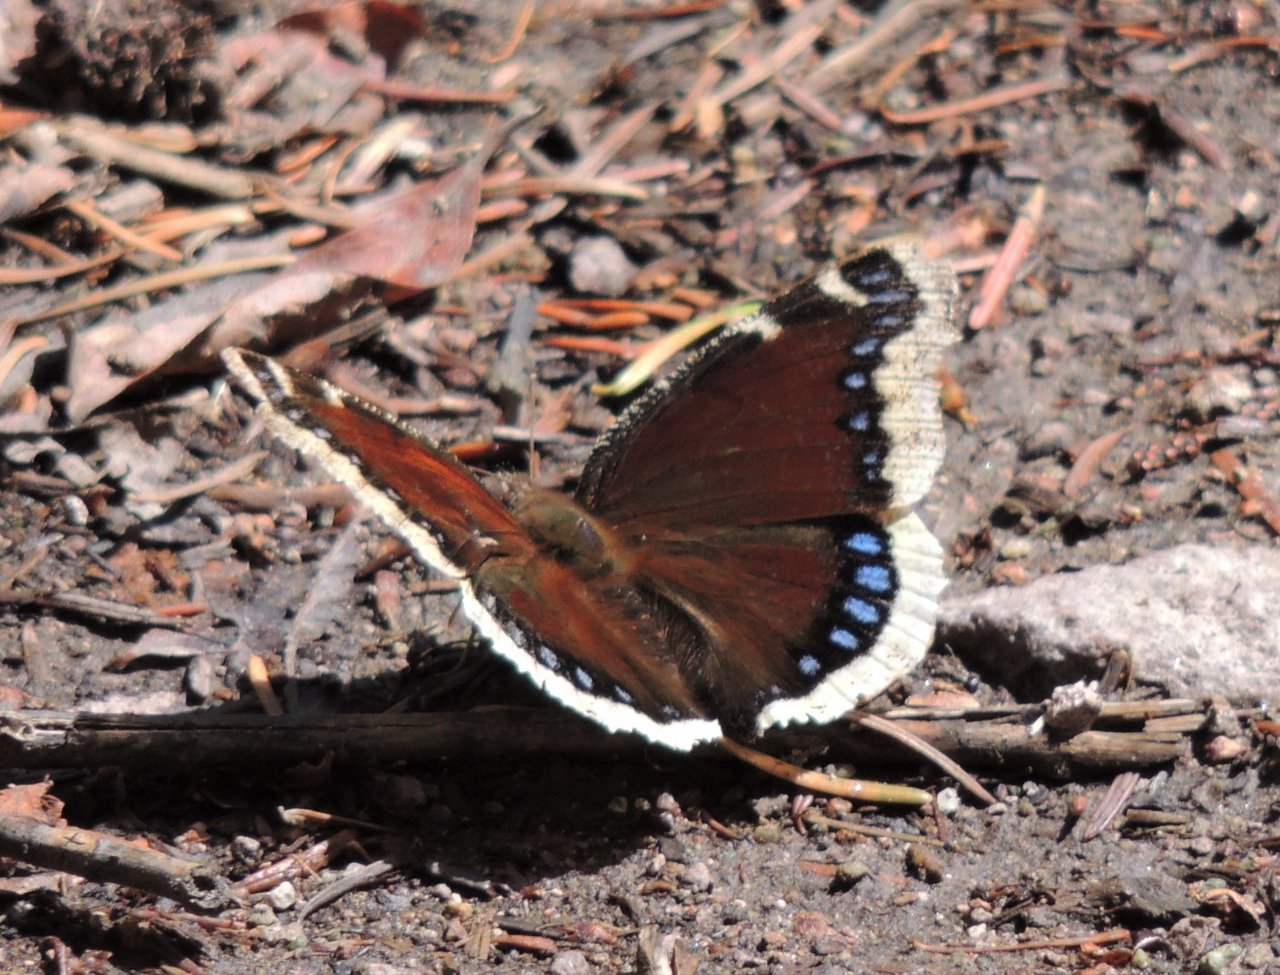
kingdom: Animalia
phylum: Arthropoda
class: Insecta
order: Lepidoptera
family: Nymphalidae
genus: Nymphalis
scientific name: Nymphalis antiopa
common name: Mourning Cloak
